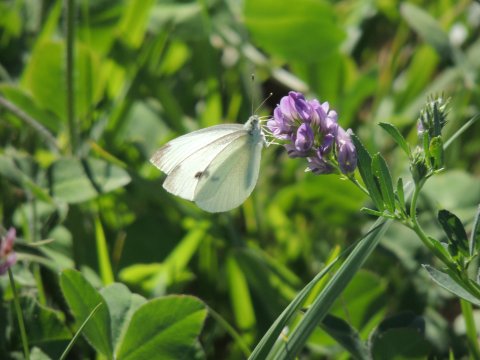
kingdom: Animalia
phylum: Arthropoda
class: Insecta
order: Lepidoptera
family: Pieridae
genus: Pieris
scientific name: Pieris rapae
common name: Cabbage White
